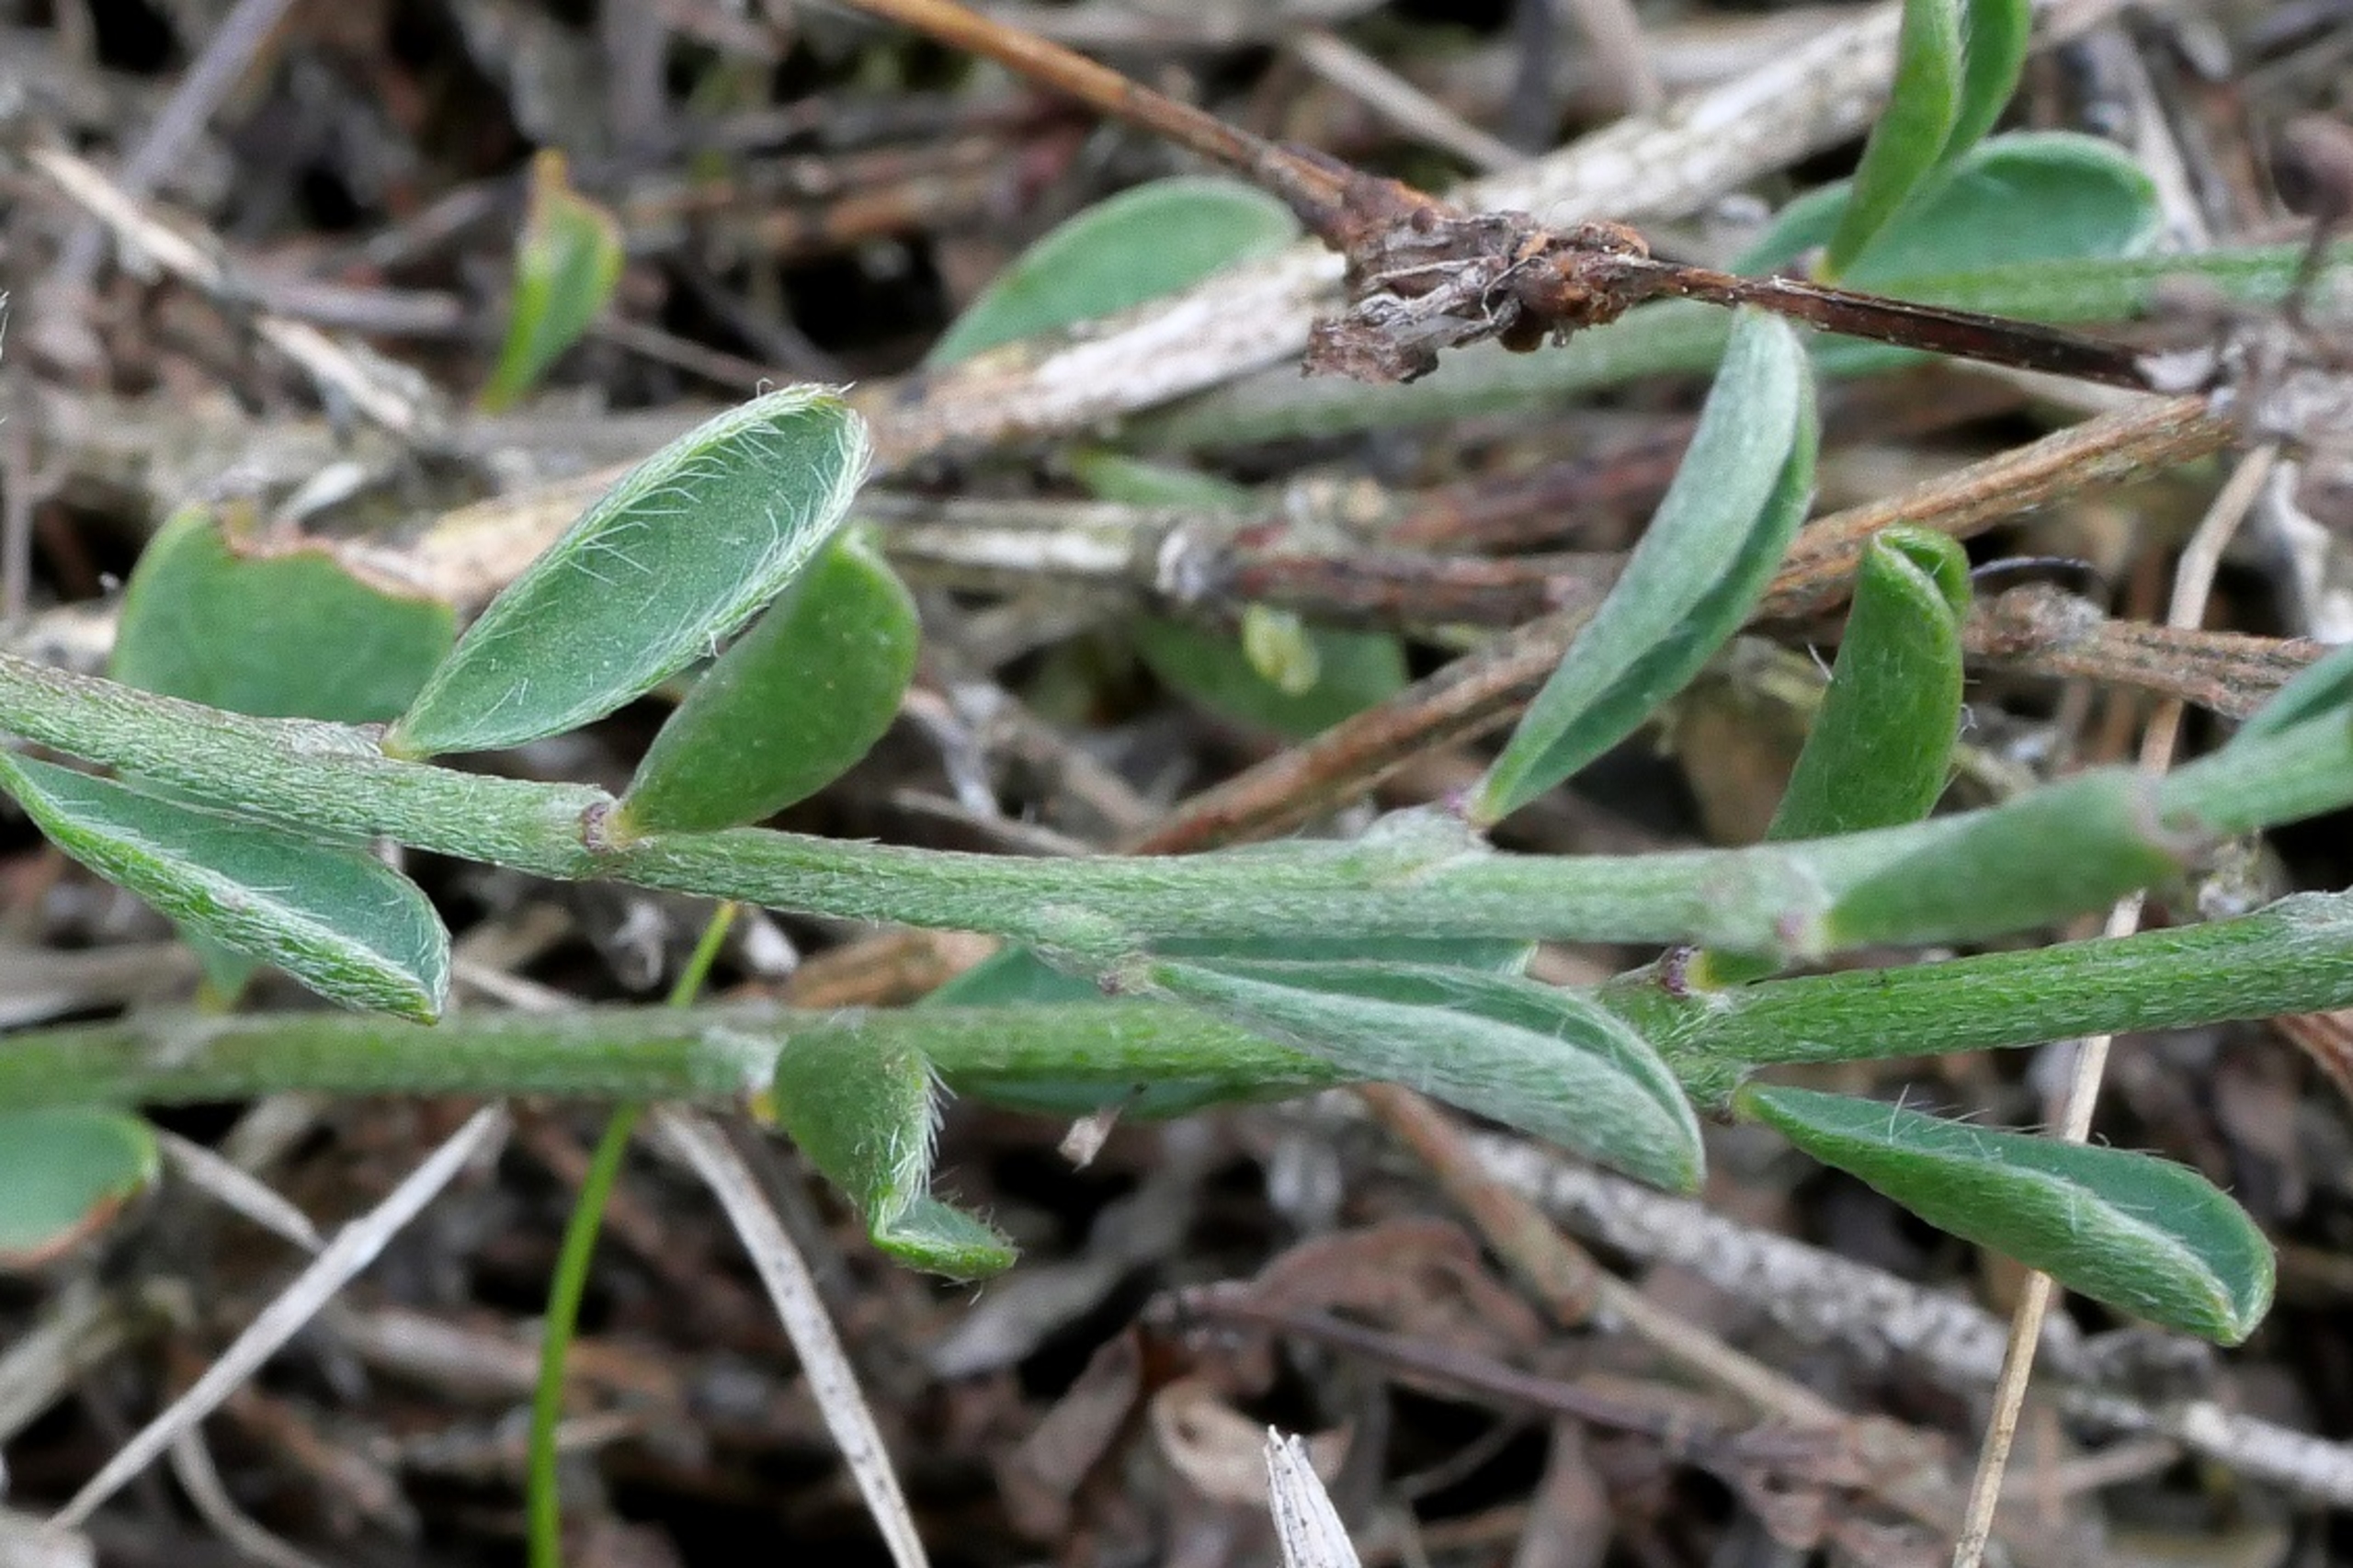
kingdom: Plantae
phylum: Tracheophyta
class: Magnoliopsida
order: Fabales
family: Fabaceae
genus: Genista
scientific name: Genista pilosa
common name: Håret visse
